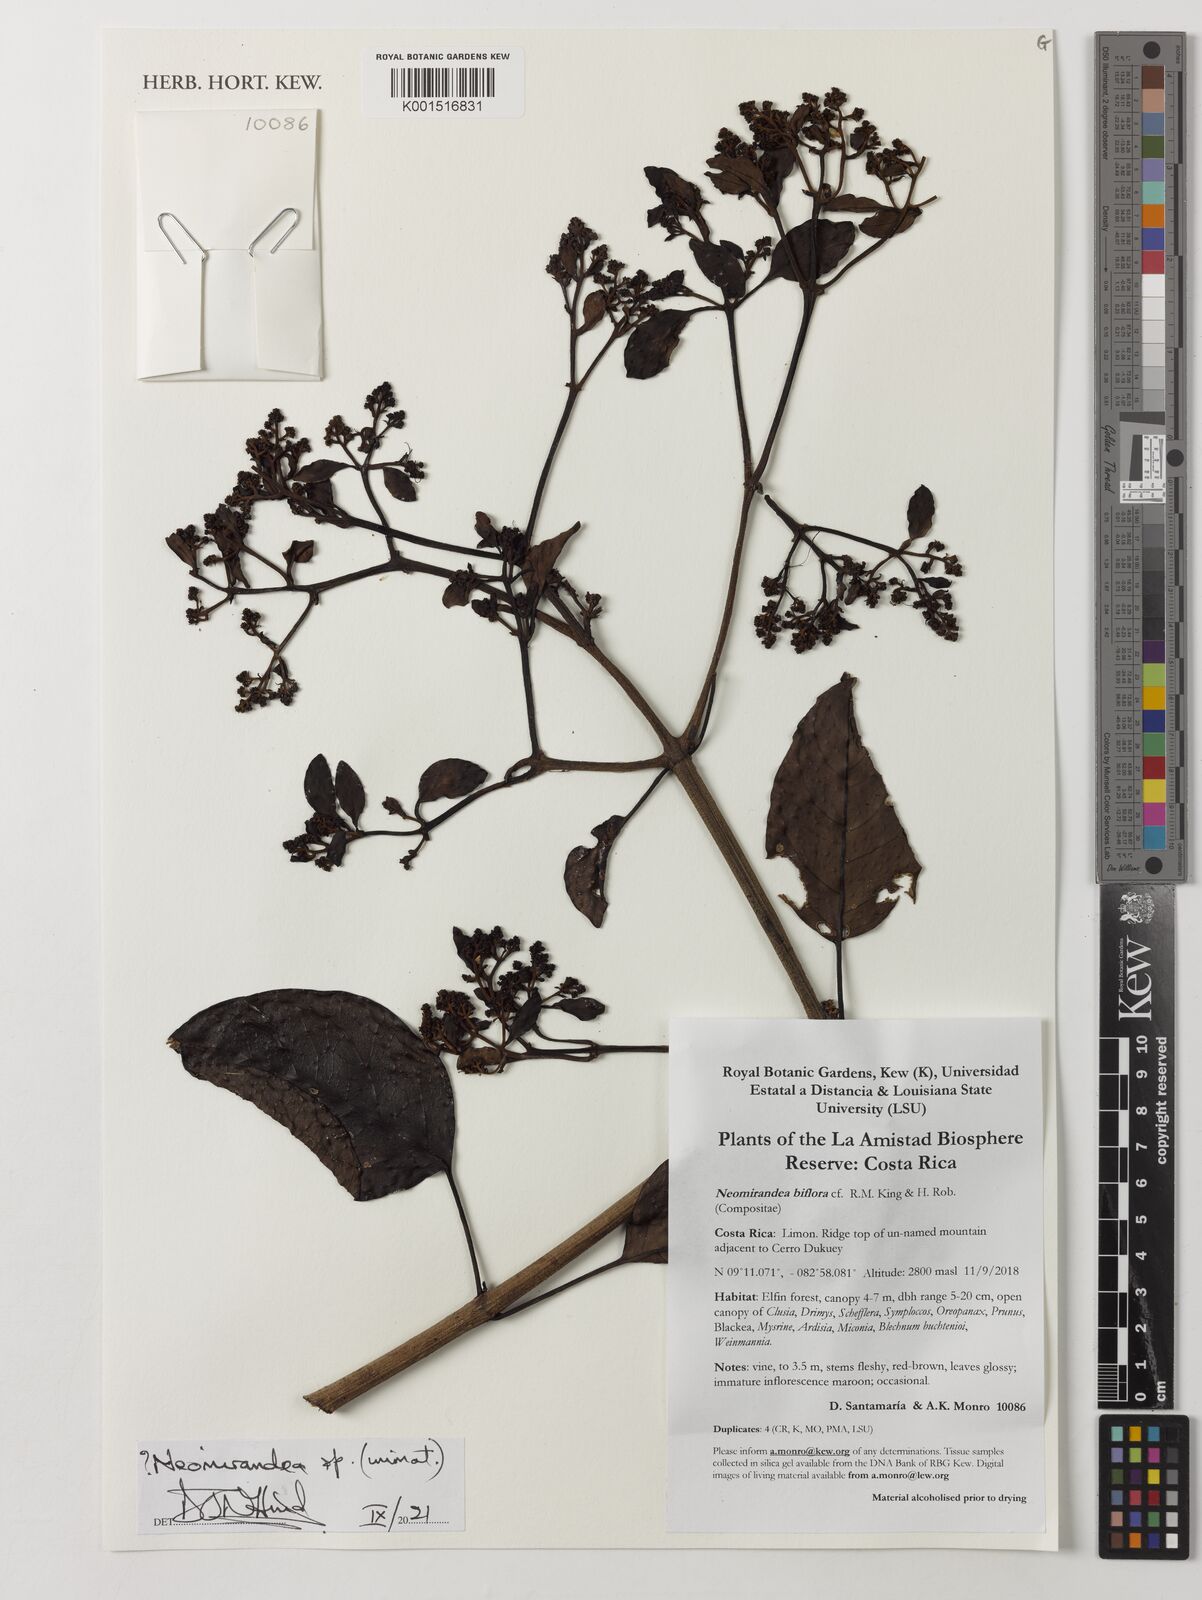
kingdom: Plantae
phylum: Tracheophyta
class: Magnoliopsida
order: Asterales
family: Asteraceae
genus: Neomirandea
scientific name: Neomirandea
